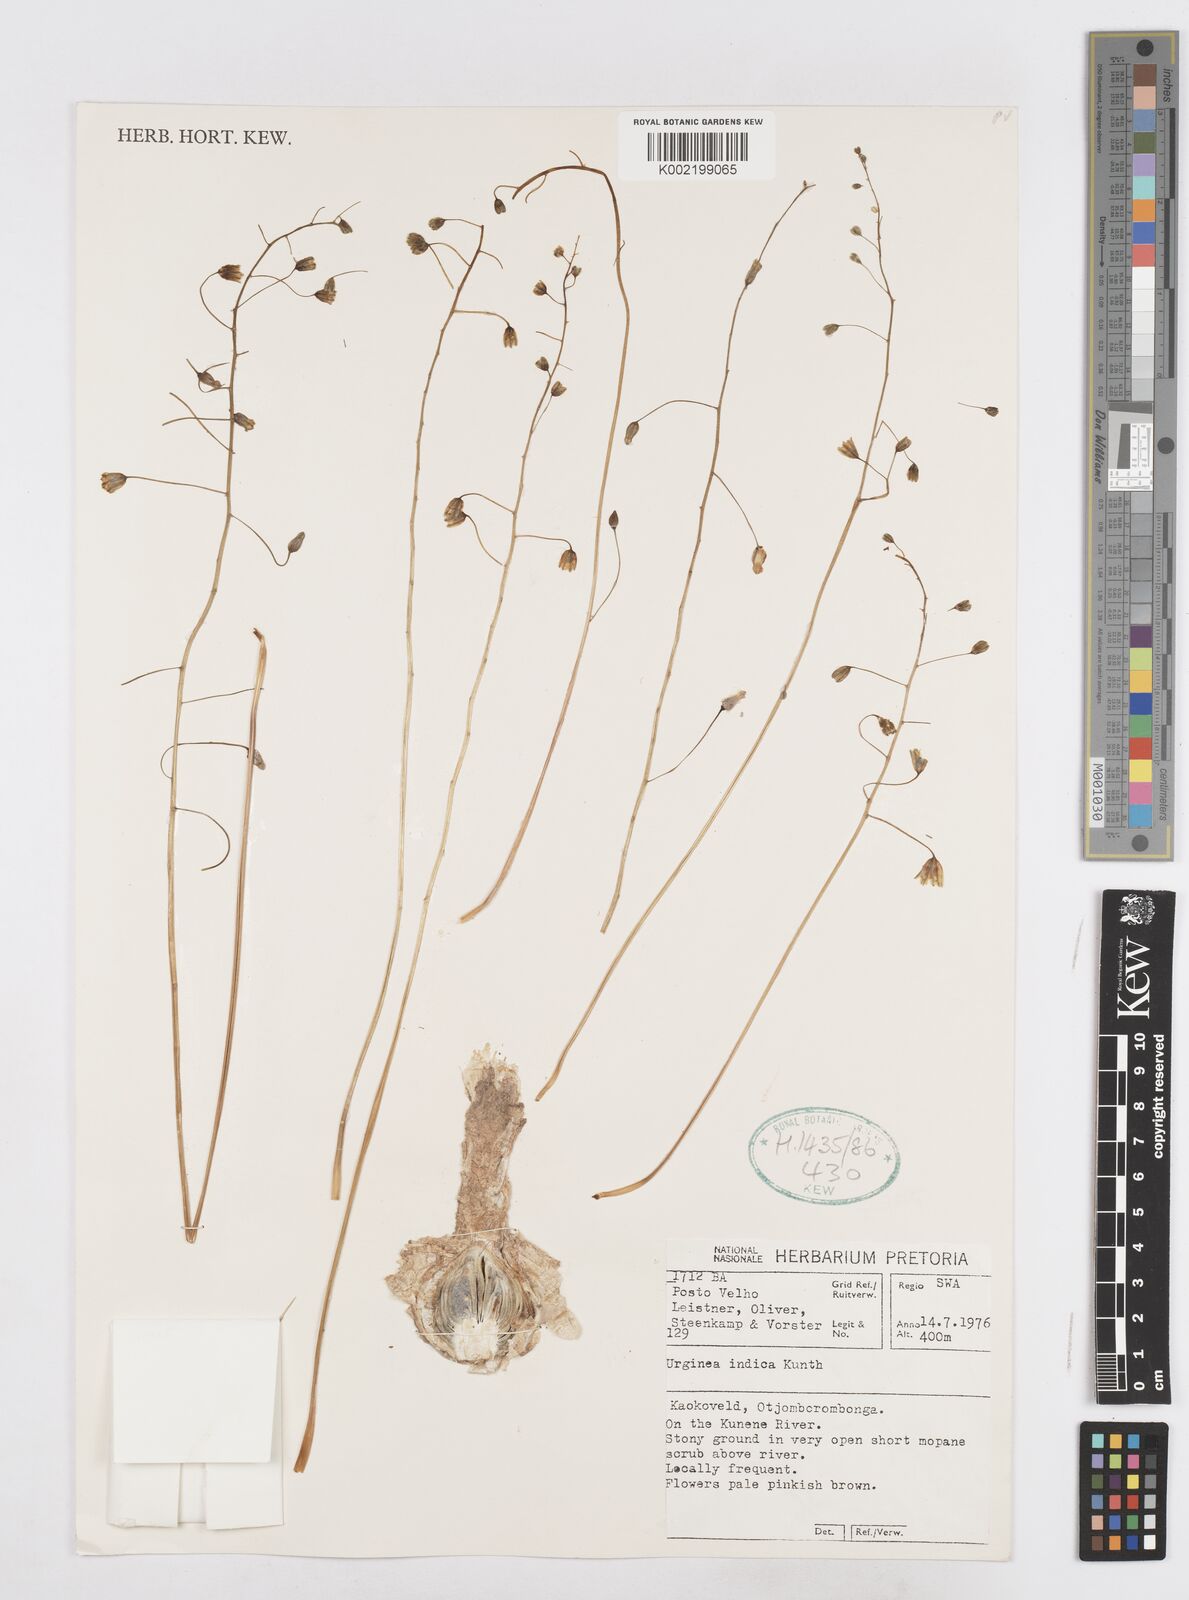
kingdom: Plantae
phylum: Tracheophyta
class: Liliopsida
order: Asparagales
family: Asparagaceae
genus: Drimia
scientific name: Drimia indica
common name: Indian-squill
